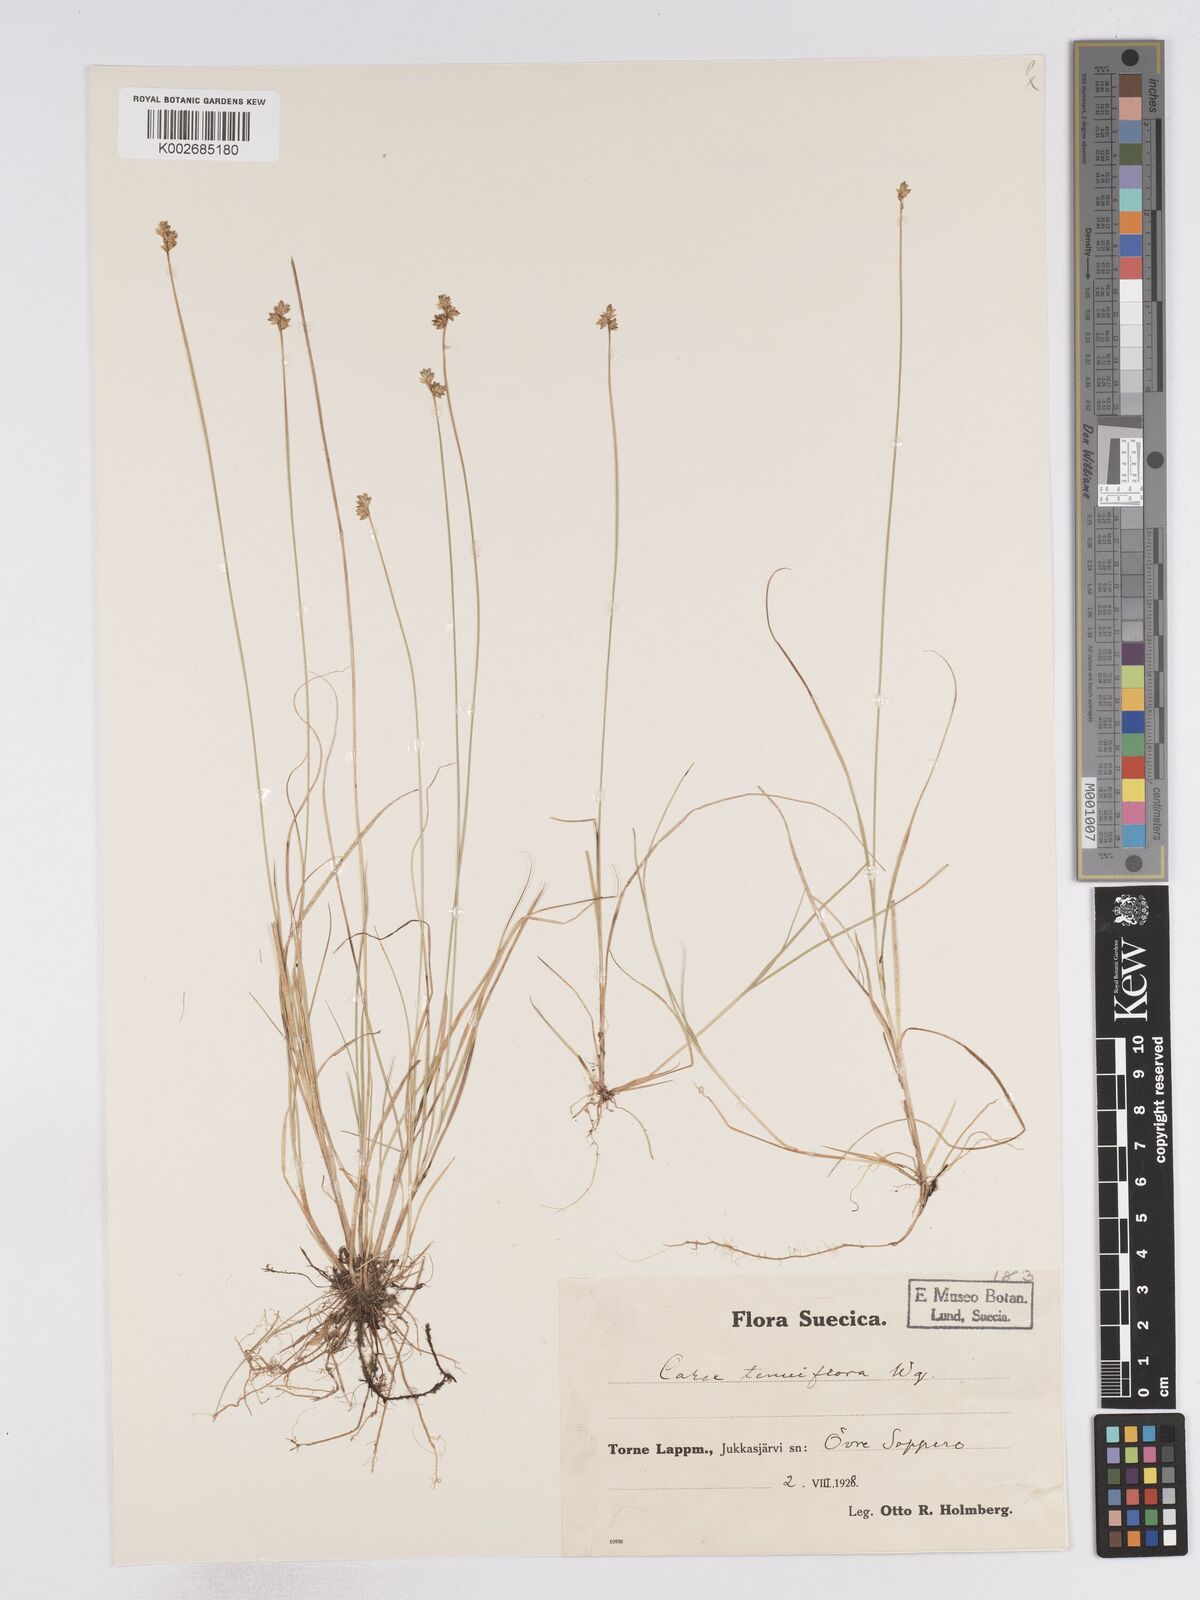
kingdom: Plantae
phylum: Tracheophyta
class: Liliopsida
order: Poales
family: Cyperaceae
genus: Carex
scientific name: Carex tenuiflora
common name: Sparse-flowered sedge
